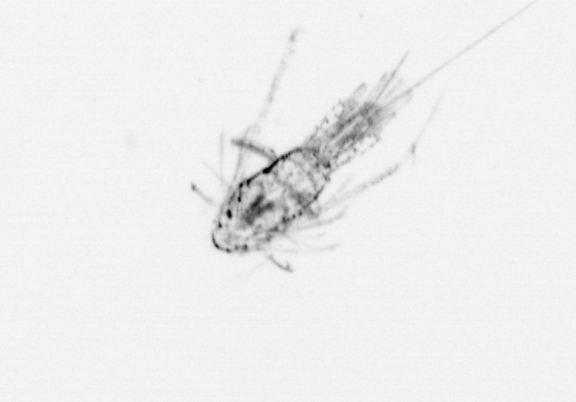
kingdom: Animalia
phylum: Arthropoda
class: Copepoda
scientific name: Copepoda
